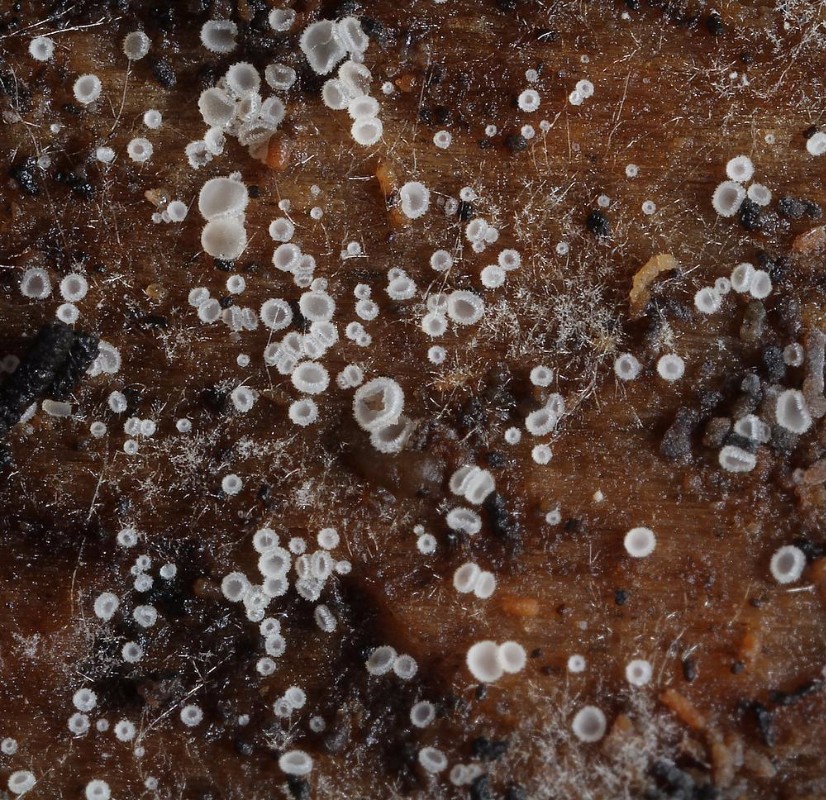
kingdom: Fungi
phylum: Ascomycota
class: Leotiomycetes
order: Helotiales
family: Hyaloscyphaceae
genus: Eupezizella
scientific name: Eupezizella aureliella
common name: almindelig klarskive
